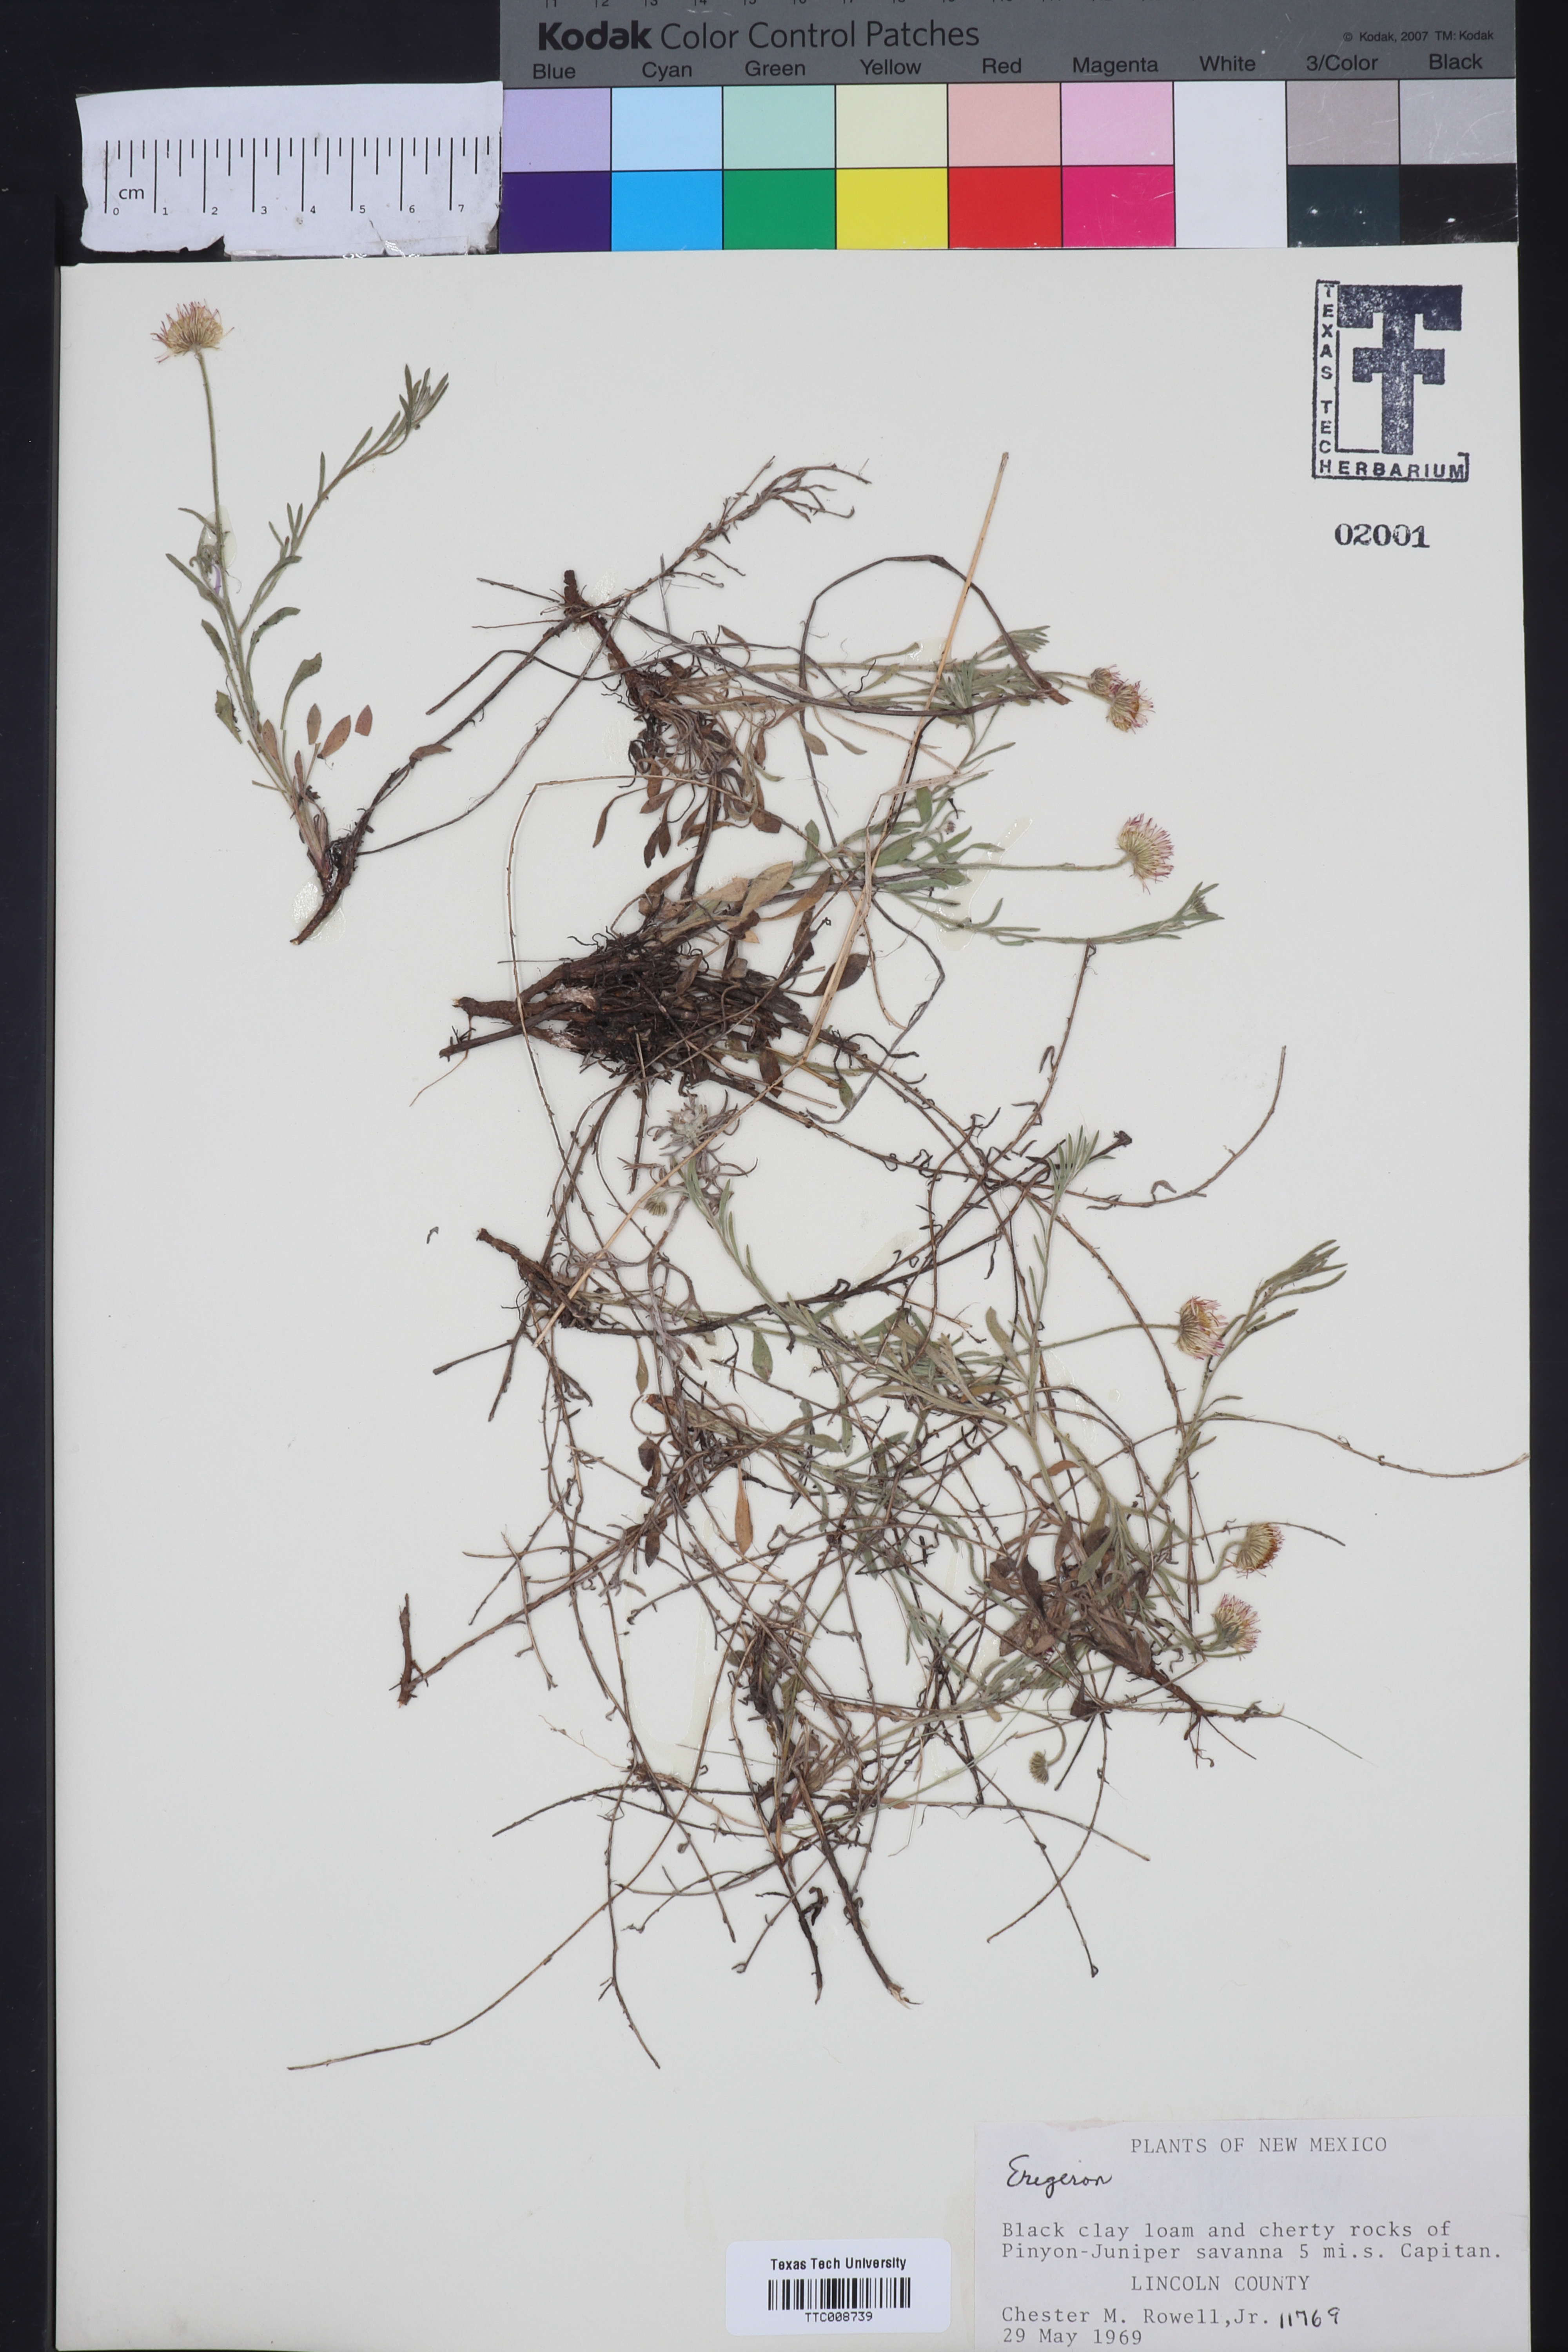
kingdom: Plantae
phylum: Tracheophyta
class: Magnoliopsida
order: Asterales
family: Asteraceae
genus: Erigeron
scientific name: Erigeron
